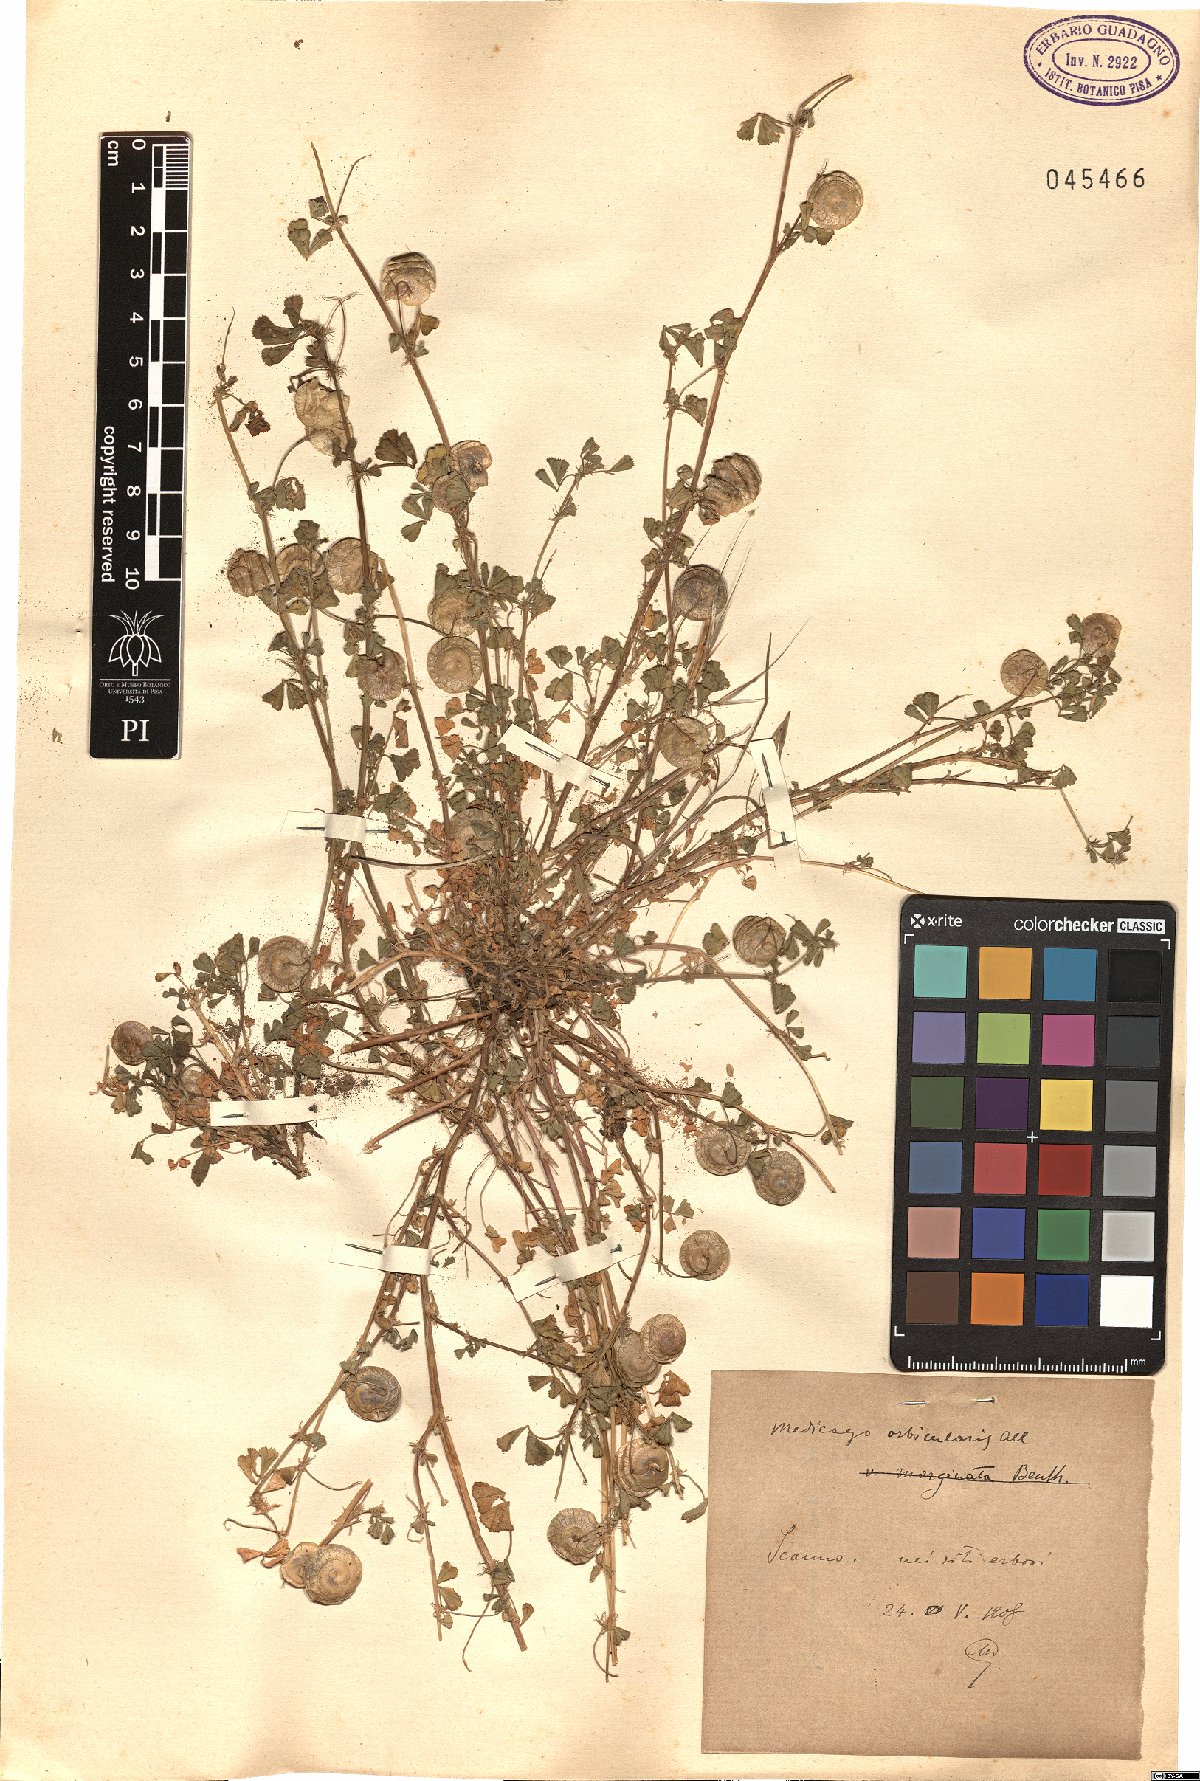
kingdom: Plantae
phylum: Tracheophyta
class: Magnoliopsida
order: Fabales
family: Fabaceae
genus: Medicago
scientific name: Medicago orbicularis
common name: Button medick
